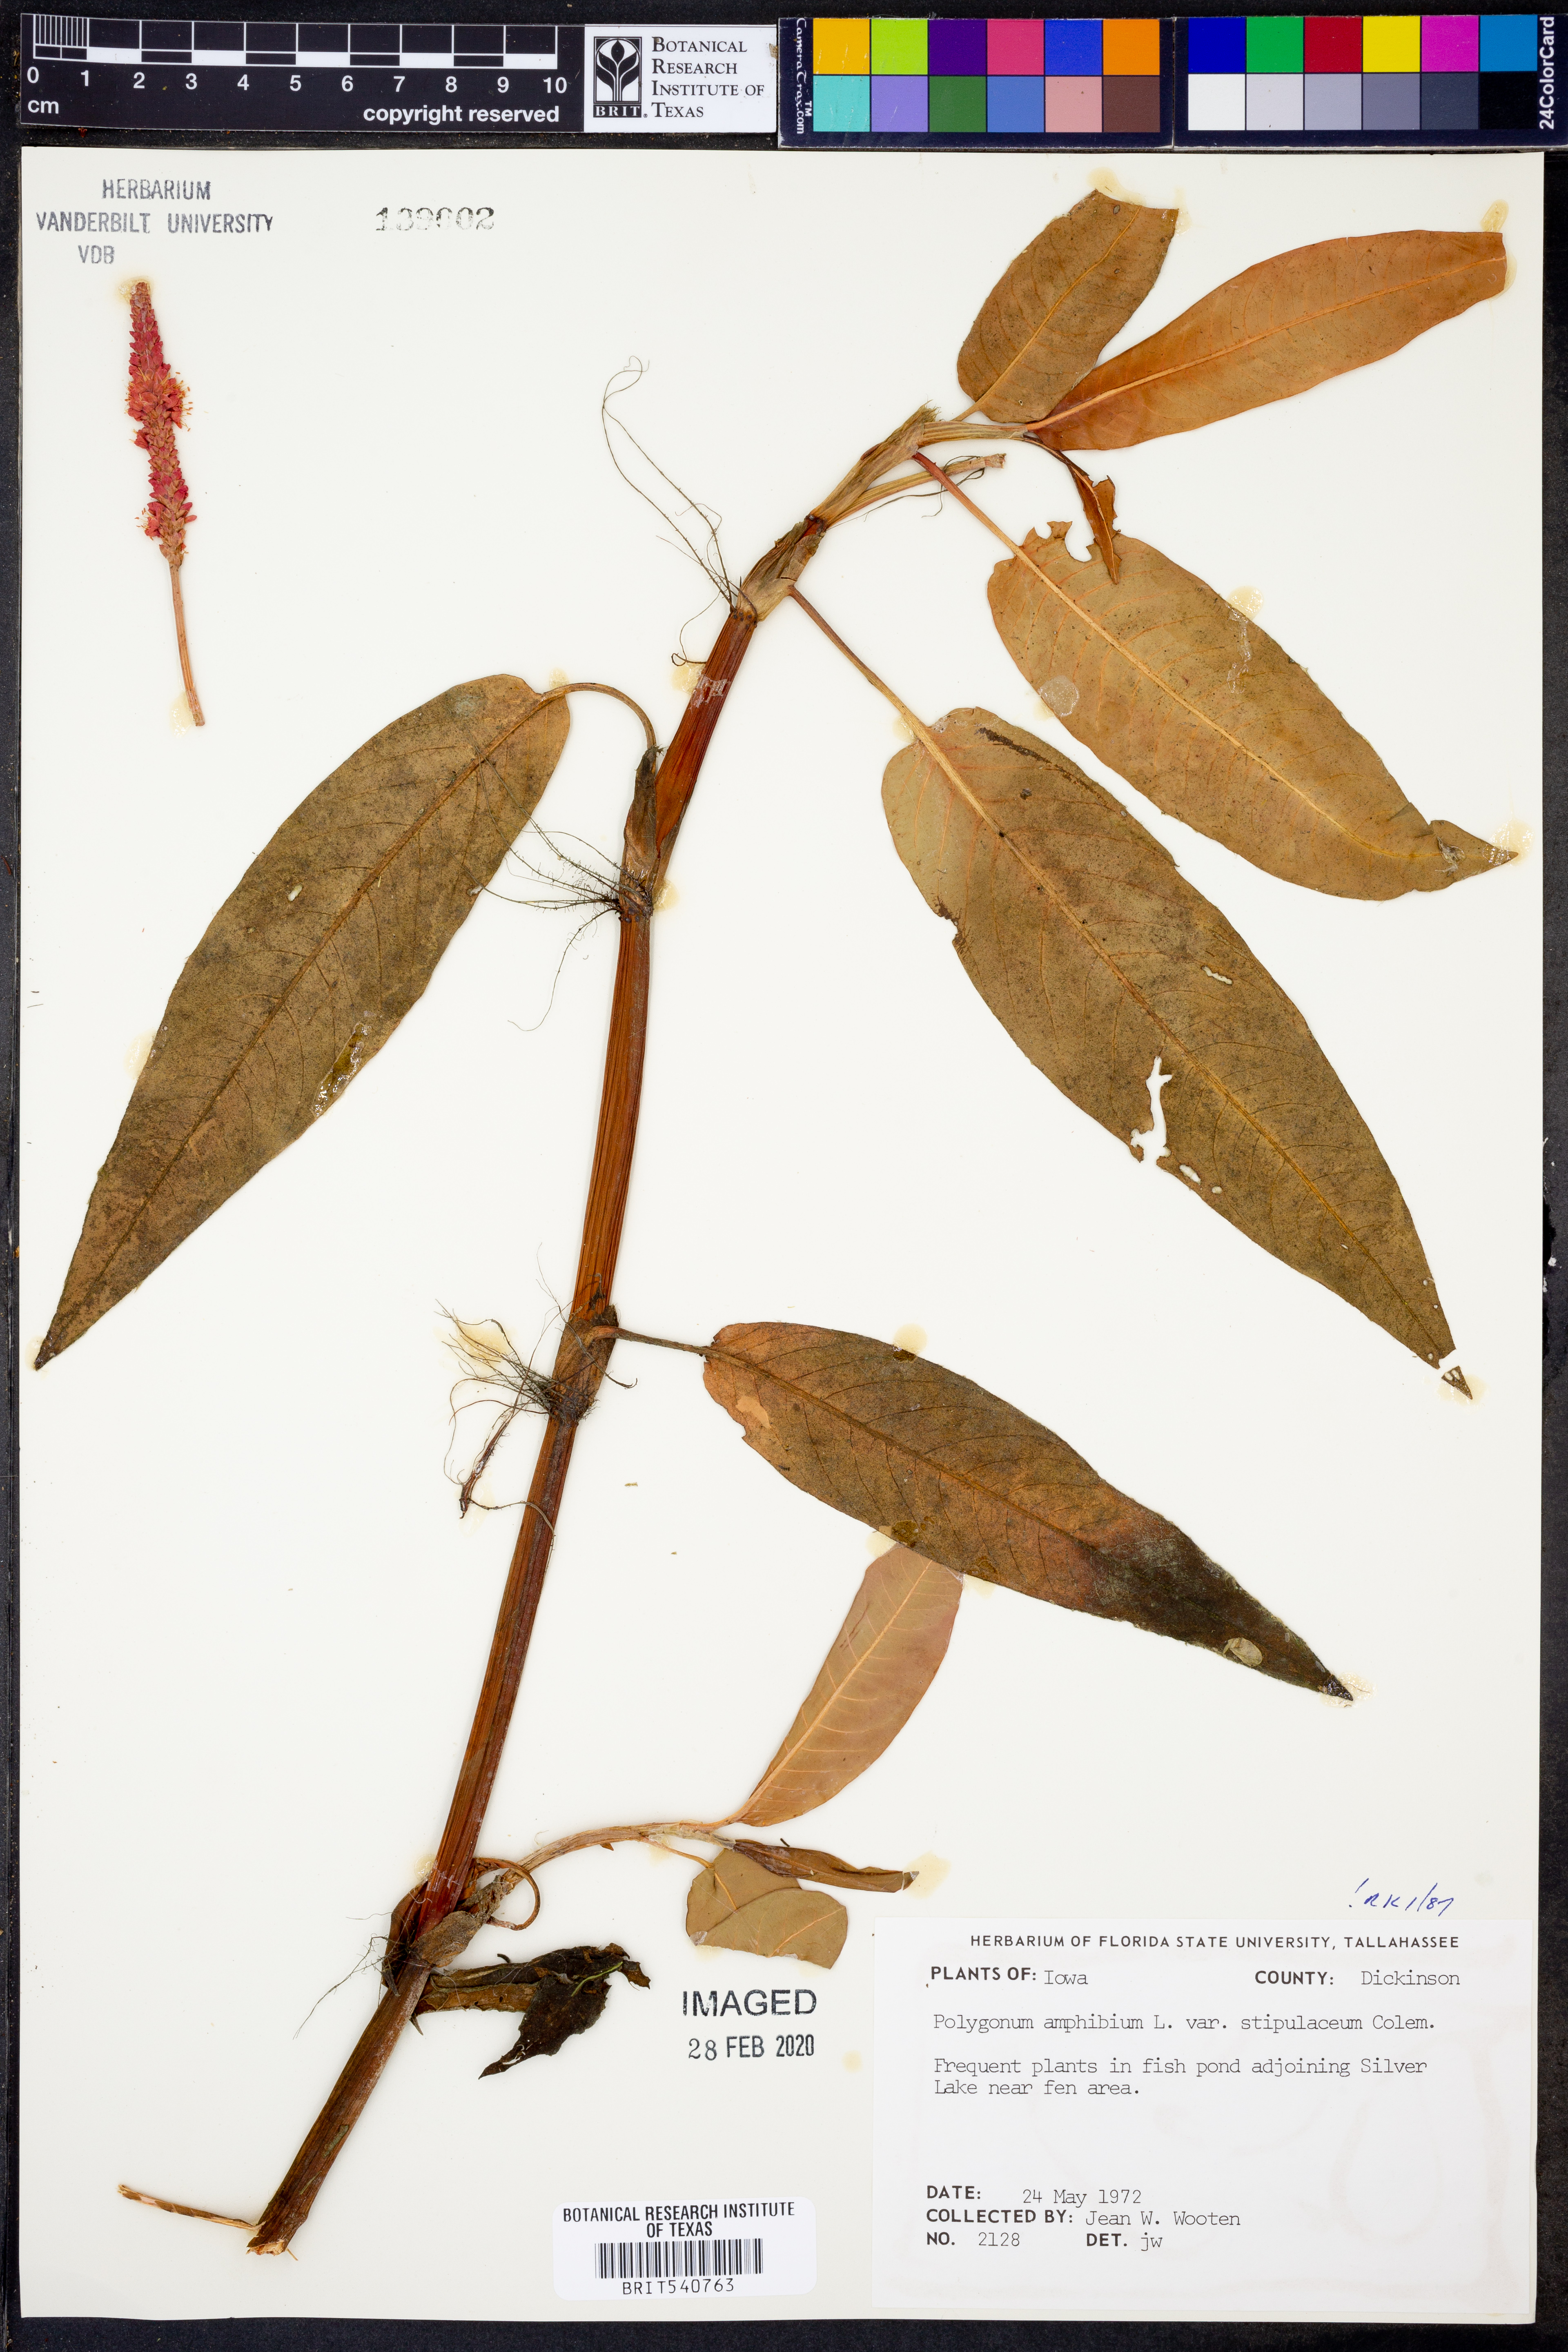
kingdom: Plantae
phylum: Tracheophyta
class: Magnoliopsida
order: Caryophyllales
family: Polygonaceae
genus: Persicaria
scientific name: Persicaria amphibia
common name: Amphibious bistort
